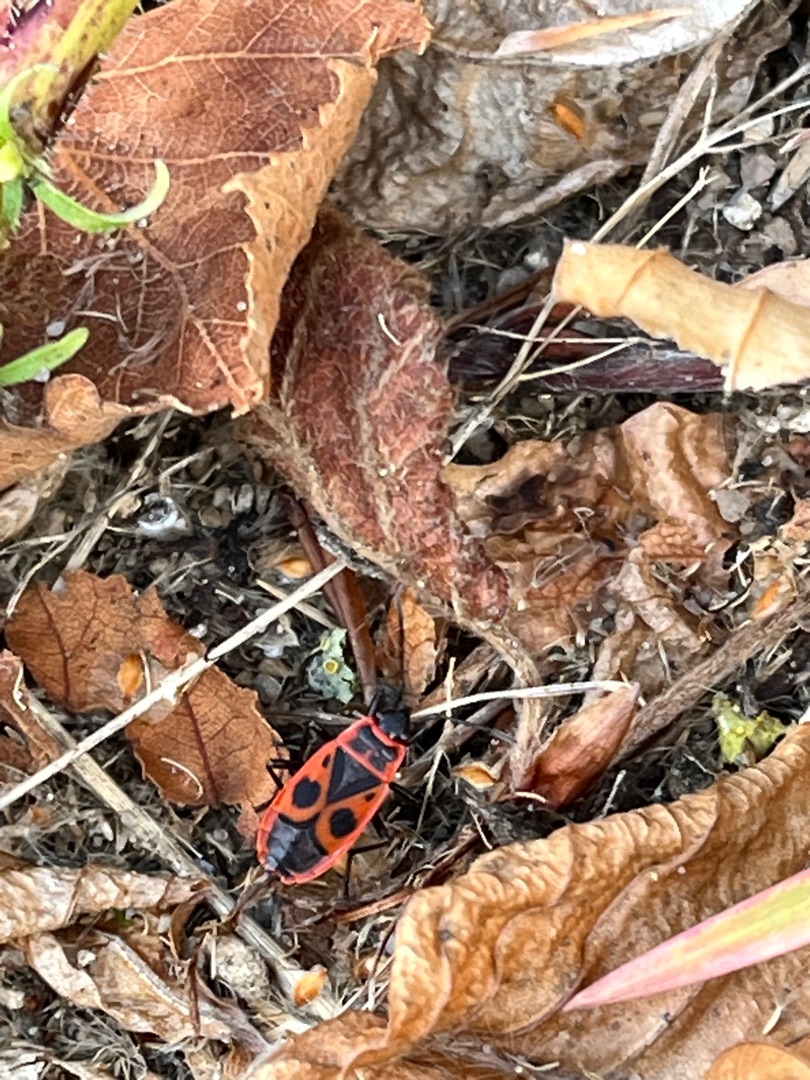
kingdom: Animalia
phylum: Arthropoda
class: Insecta
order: Hemiptera
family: Pyrrhocoridae
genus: Pyrrhocoris
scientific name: Pyrrhocoris apterus
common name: Ildtæge
